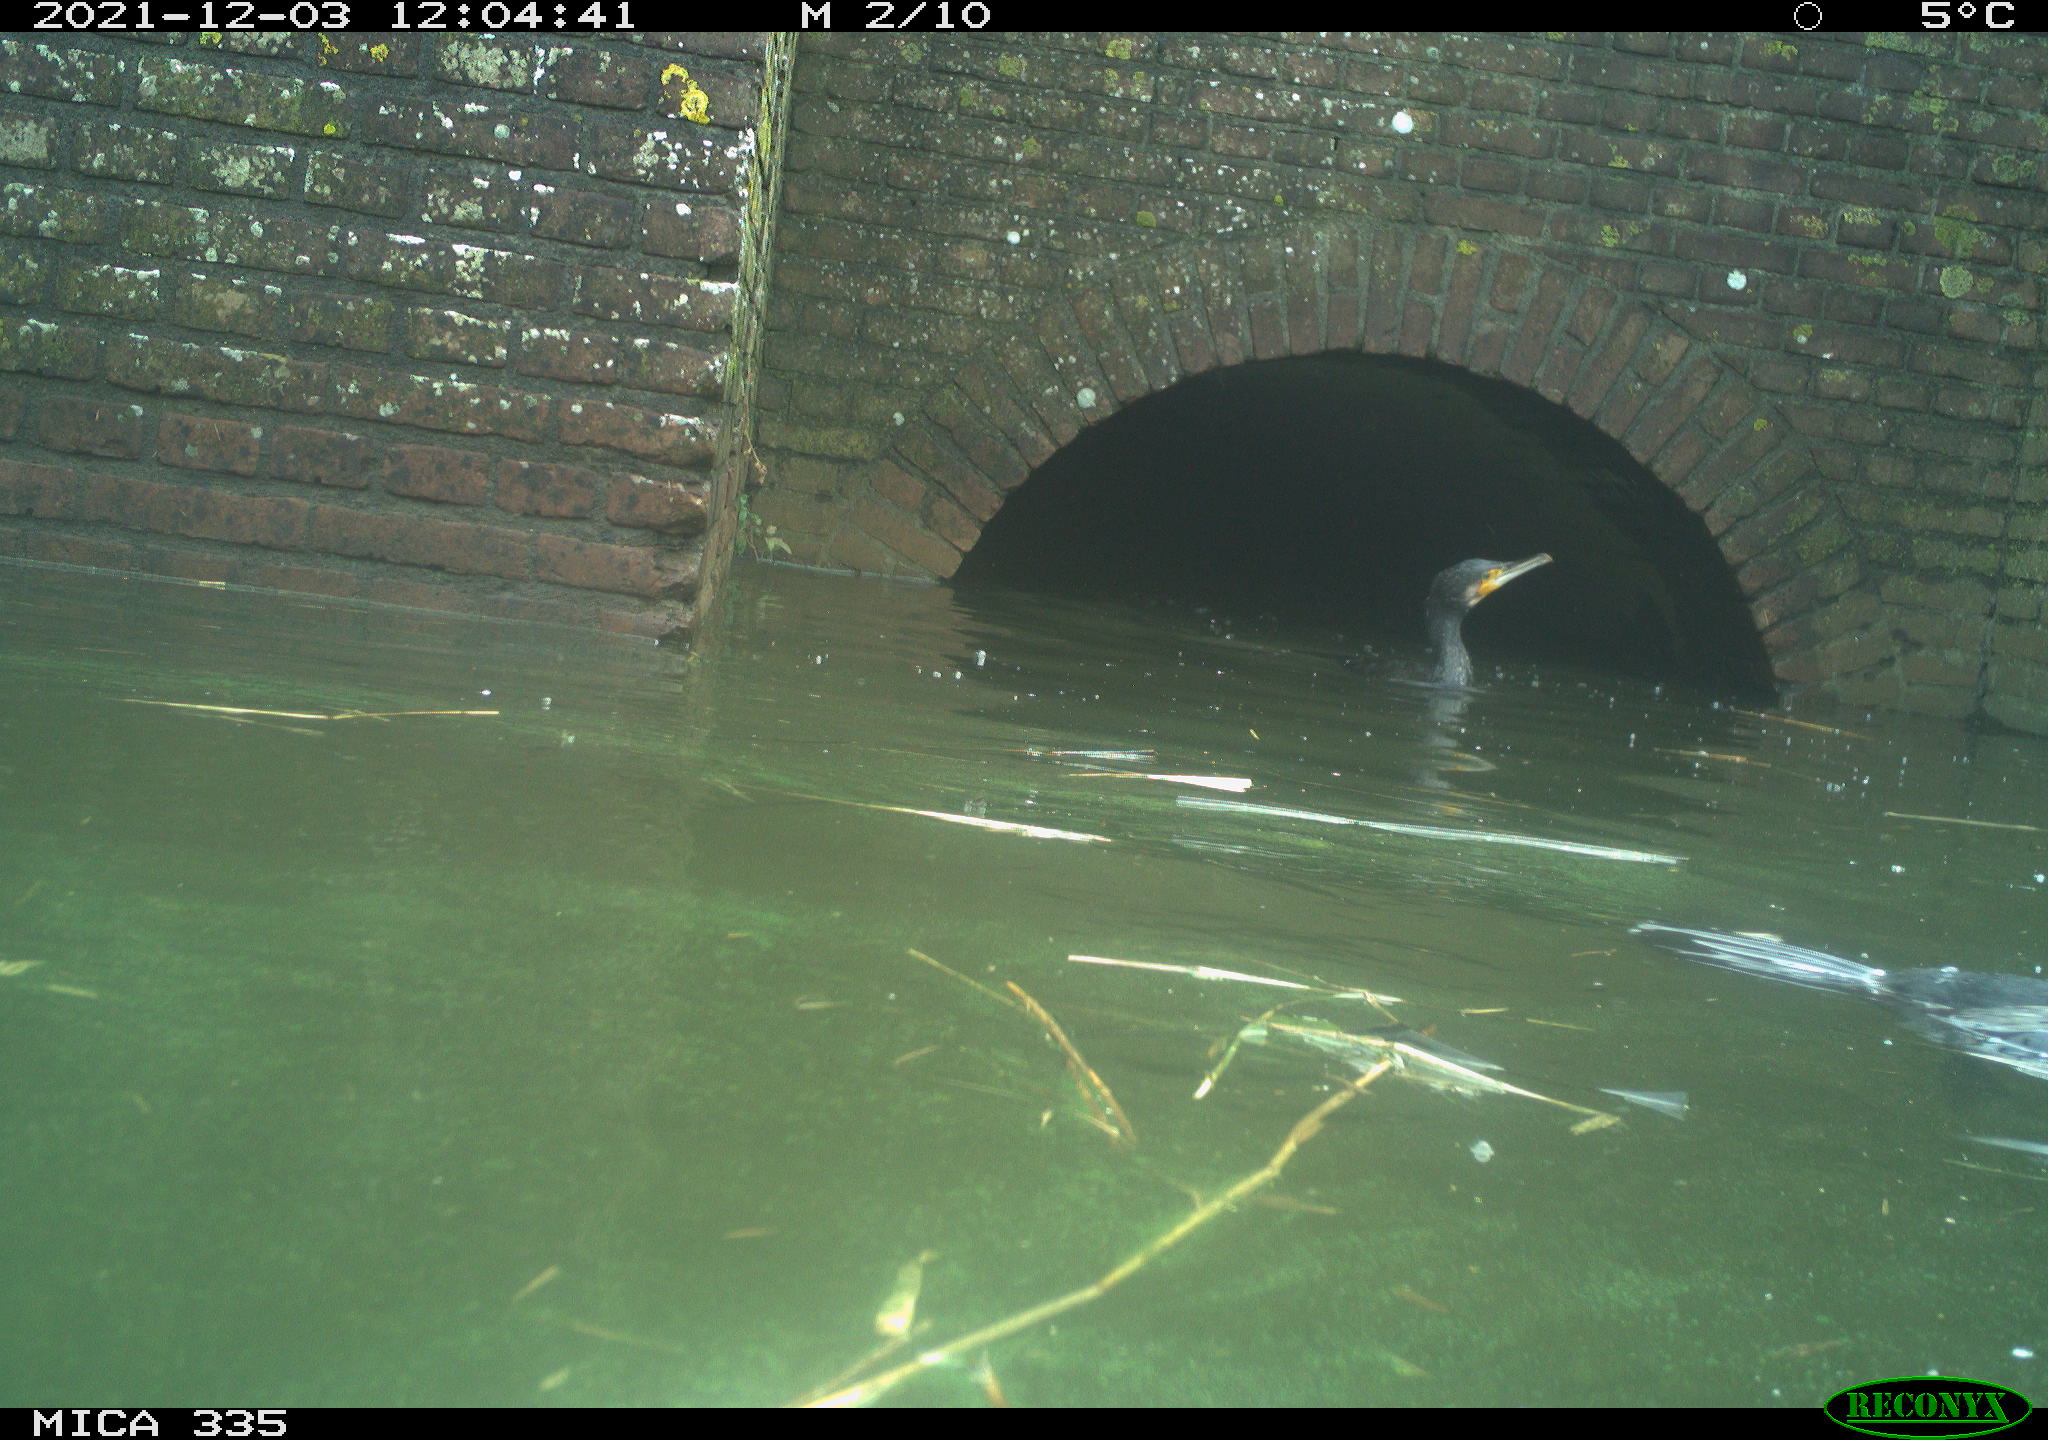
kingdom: Animalia
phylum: Chordata
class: Aves
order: Suliformes
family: Phalacrocoracidae
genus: Phalacrocorax
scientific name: Phalacrocorax carbo
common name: Great cormorant
